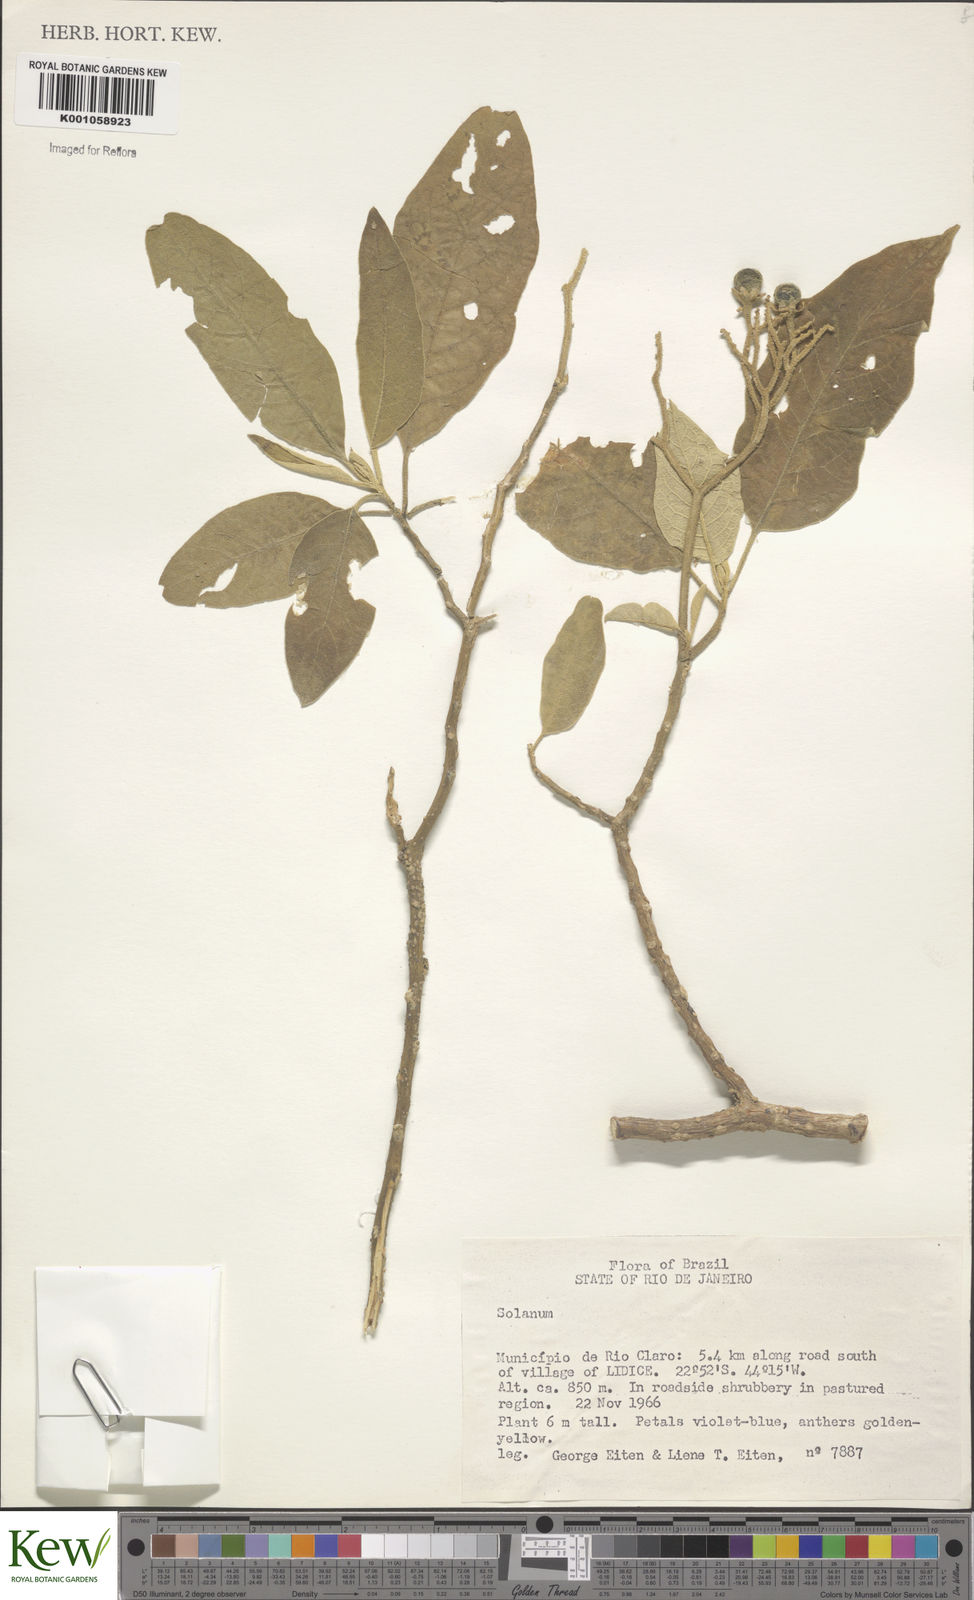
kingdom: Plantae
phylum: Tracheophyta
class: Magnoliopsida
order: Solanales
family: Solanaceae
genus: Solanum
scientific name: Solanum jussiaei
